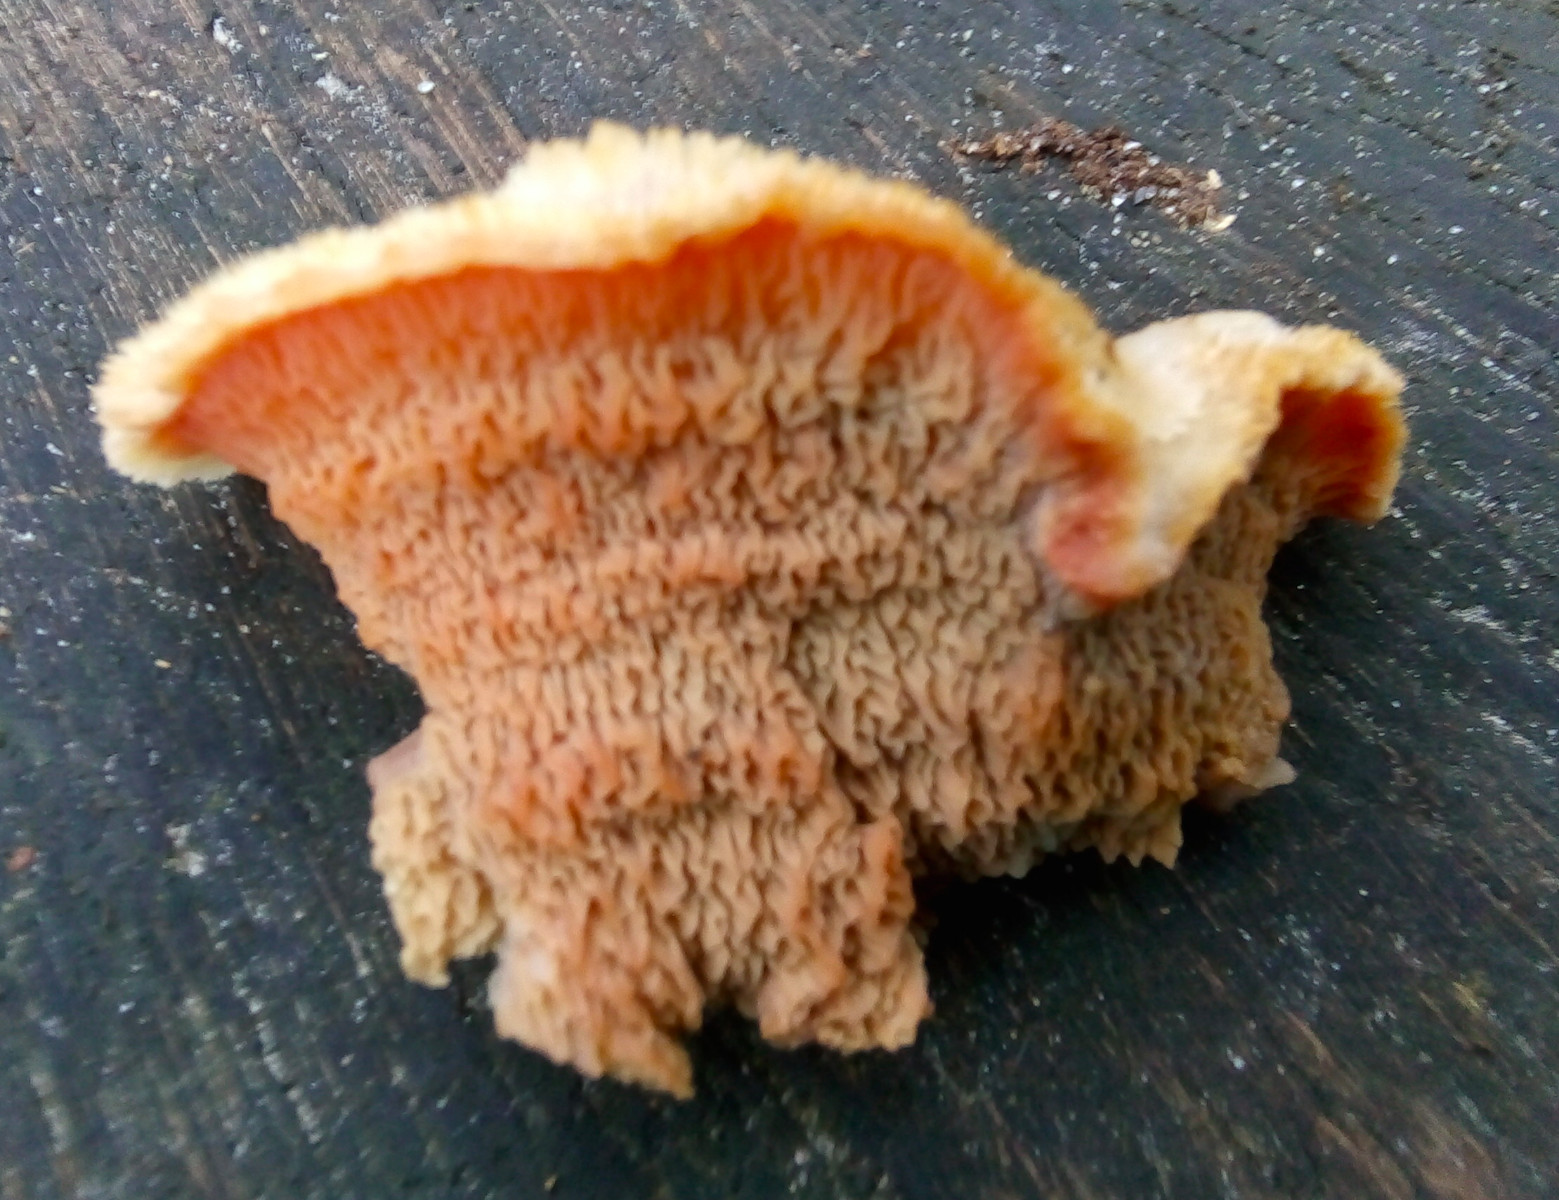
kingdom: Fungi
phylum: Basidiomycota
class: Agaricomycetes
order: Polyporales
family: Meruliaceae
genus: Phlebia
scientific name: Phlebia tremellosa
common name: bævrende åresvamp
